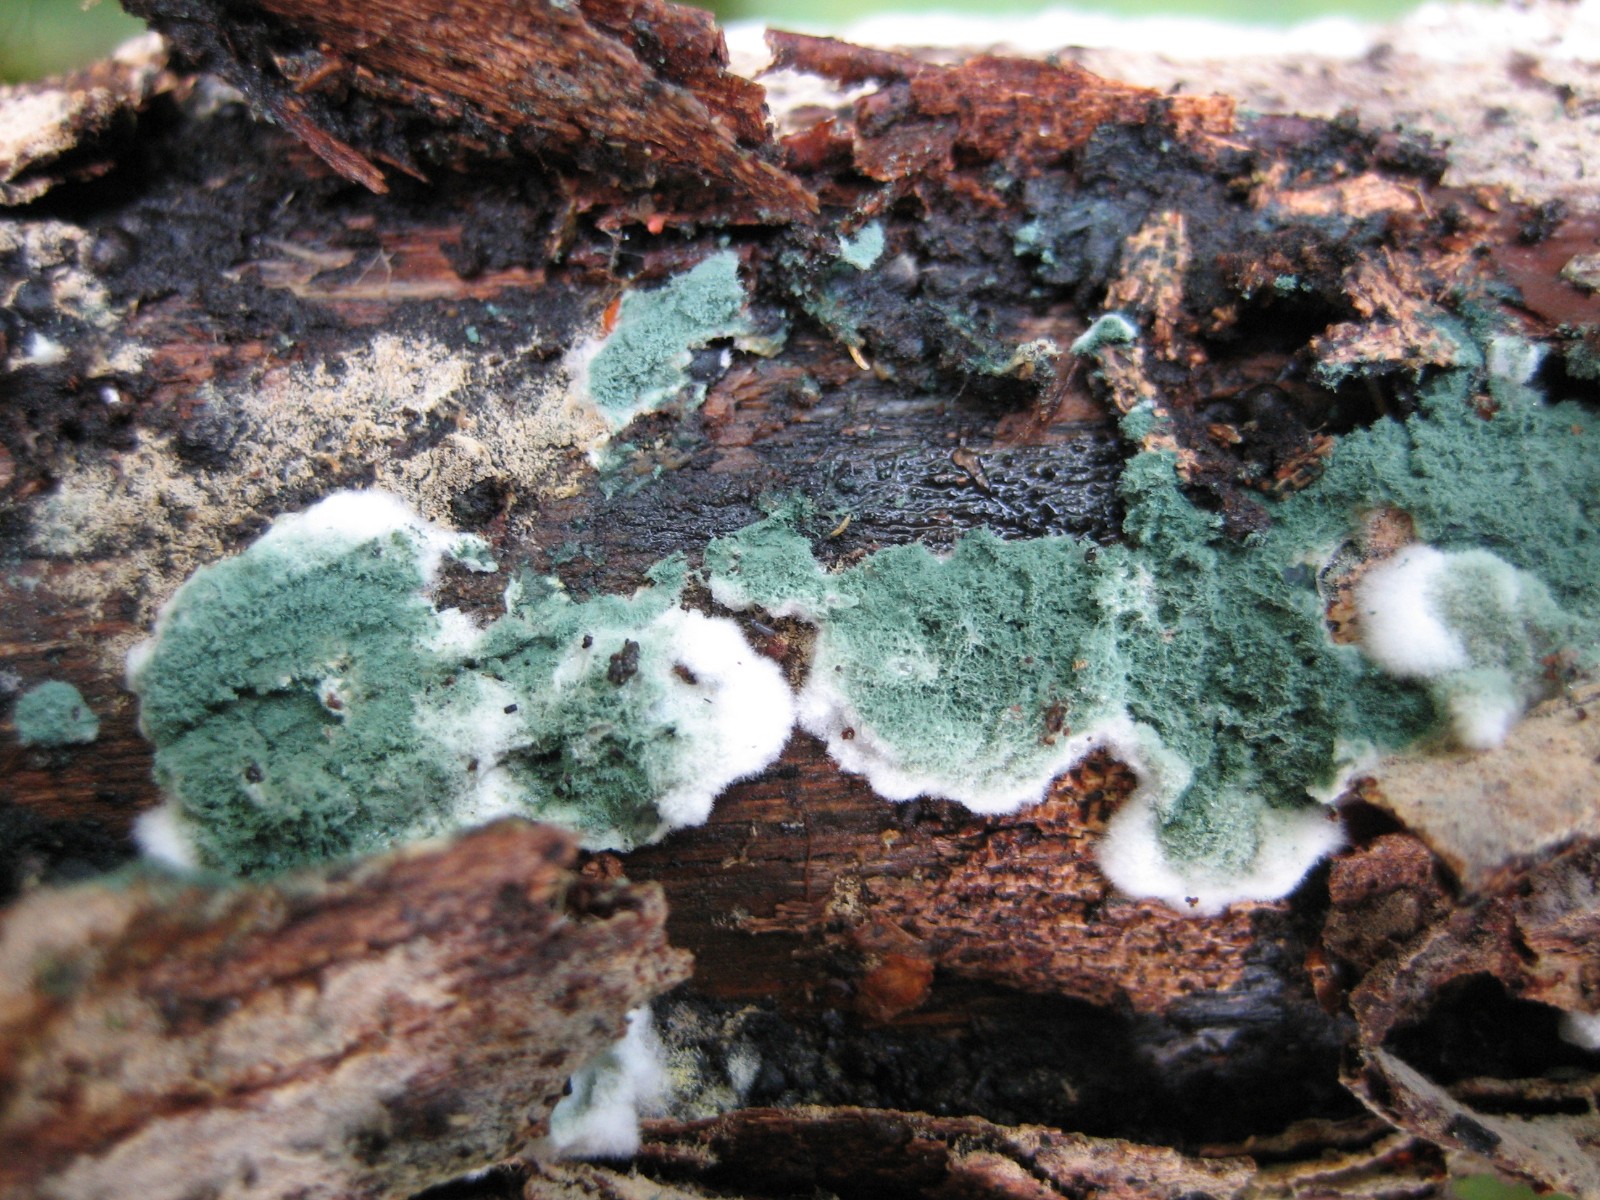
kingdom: Fungi
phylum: Ascomycota
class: Sordariomycetes
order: Hypocreales
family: Hypocreaceae
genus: Trichoderma
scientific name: Trichoderma
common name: kødkerne
